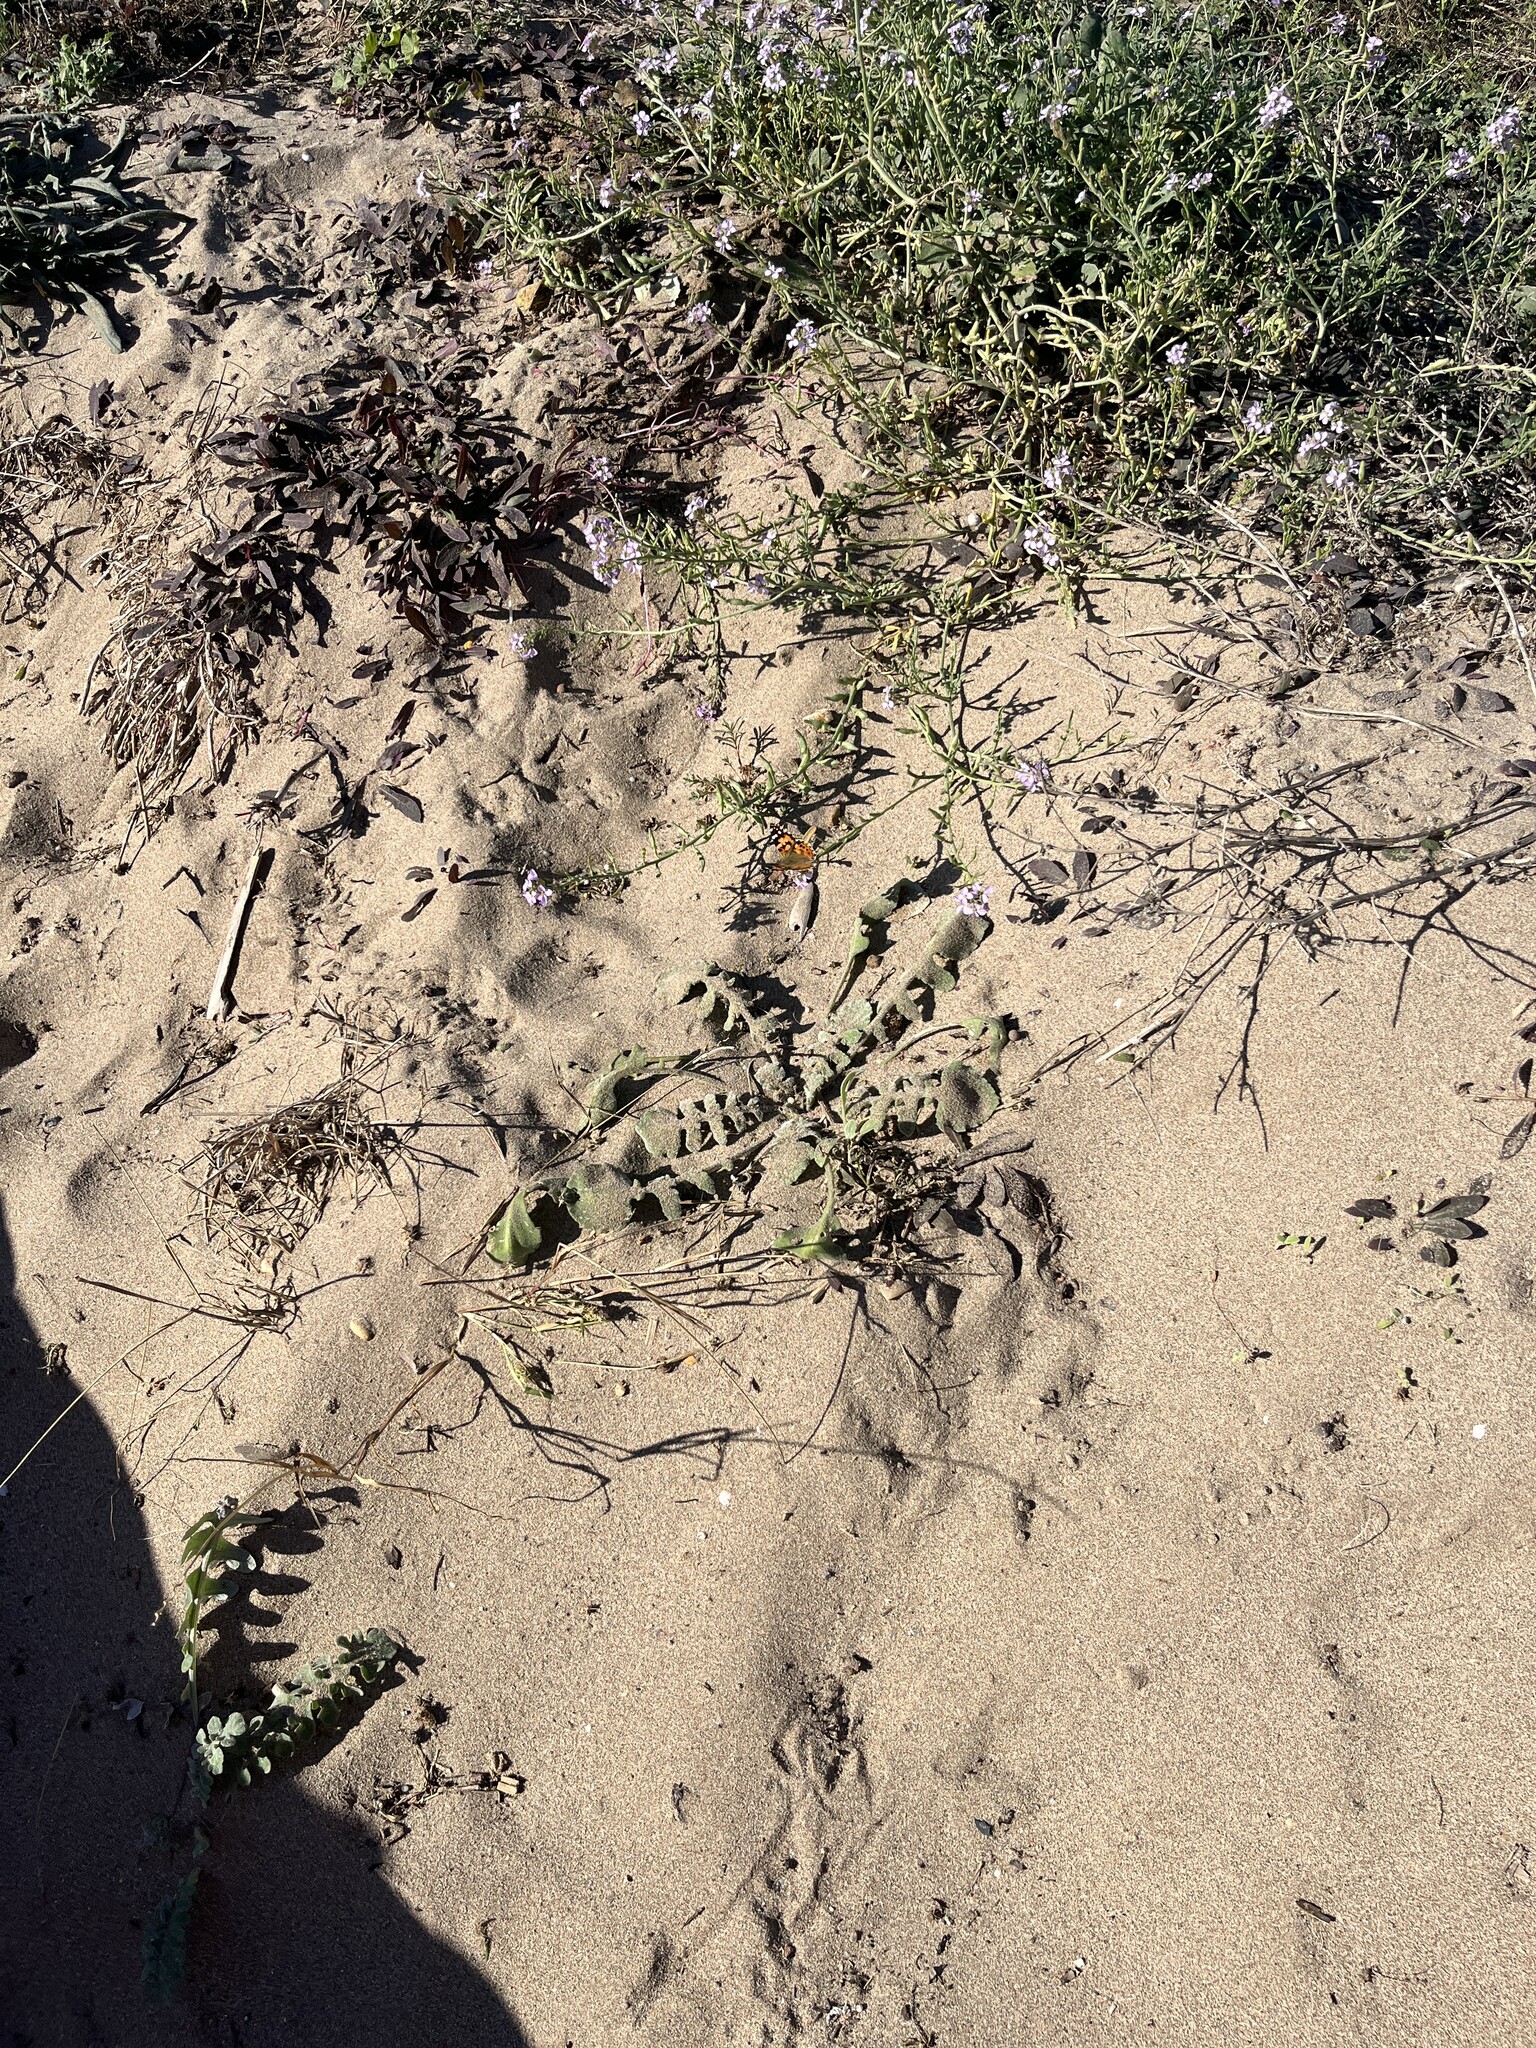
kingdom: Animalia
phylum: Arthropoda
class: Insecta
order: Lepidoptera
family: Nymphalidae
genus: Vanessa
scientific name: Vanessa cardui
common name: Painted lady
